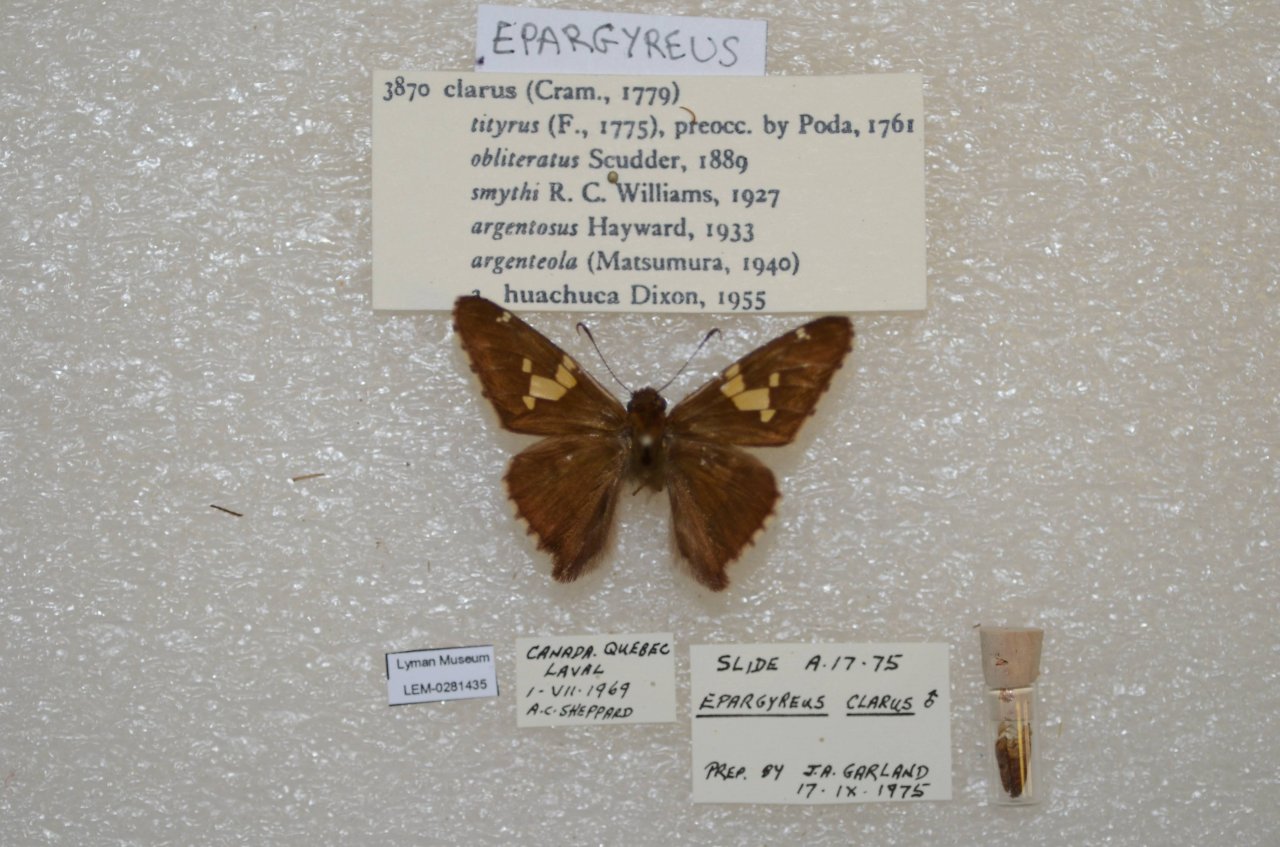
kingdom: Animalia
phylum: Arthropoda
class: Insecta
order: Lepidoptera
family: Hesperiidae
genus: Epargyreus
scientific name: Epargyreus clarus
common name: Silver-spotted Skipper
